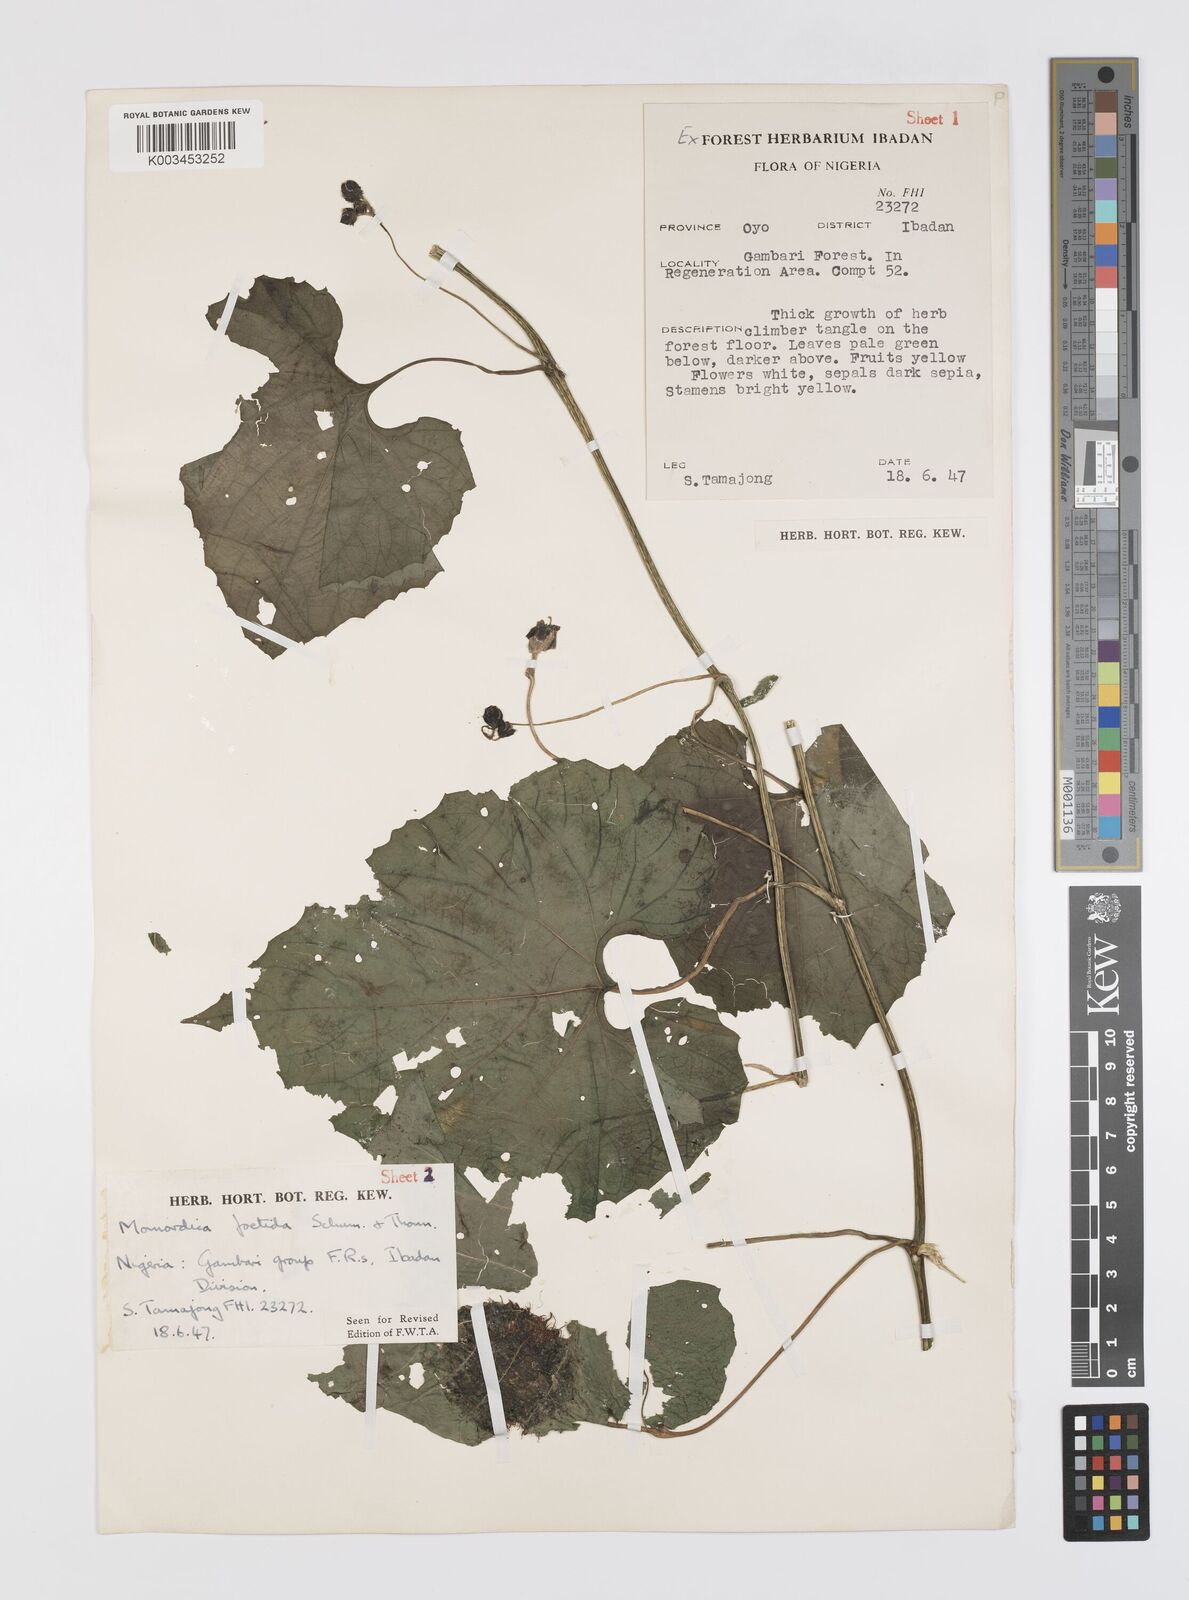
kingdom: Plantae
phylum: Tracheophyta
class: Magnoliopsida
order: Cucurbitales
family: Cucurbitaceae
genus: Momordica
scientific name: Momordica foetida
